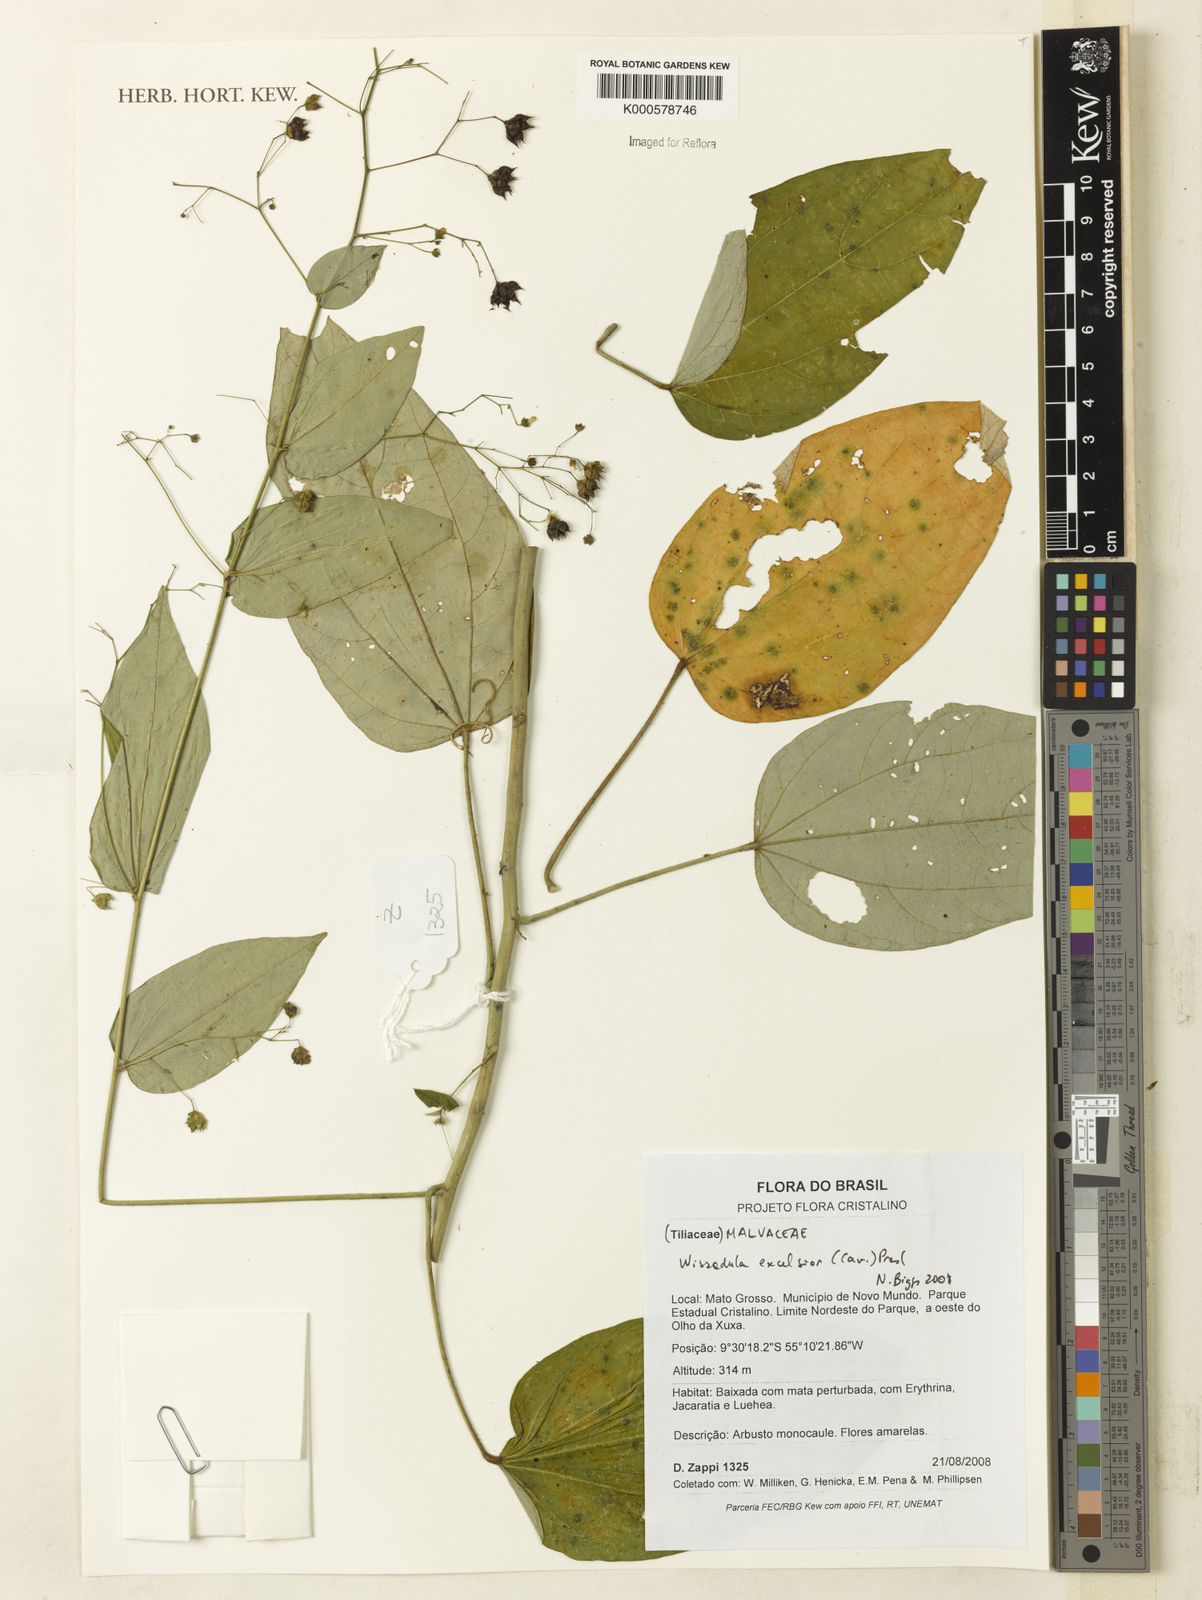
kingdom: Plantae
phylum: Tracheophyta
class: Magnoliopsida
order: Malvales
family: Malvaceae
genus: Wissadula
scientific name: Wissadula excelsior
